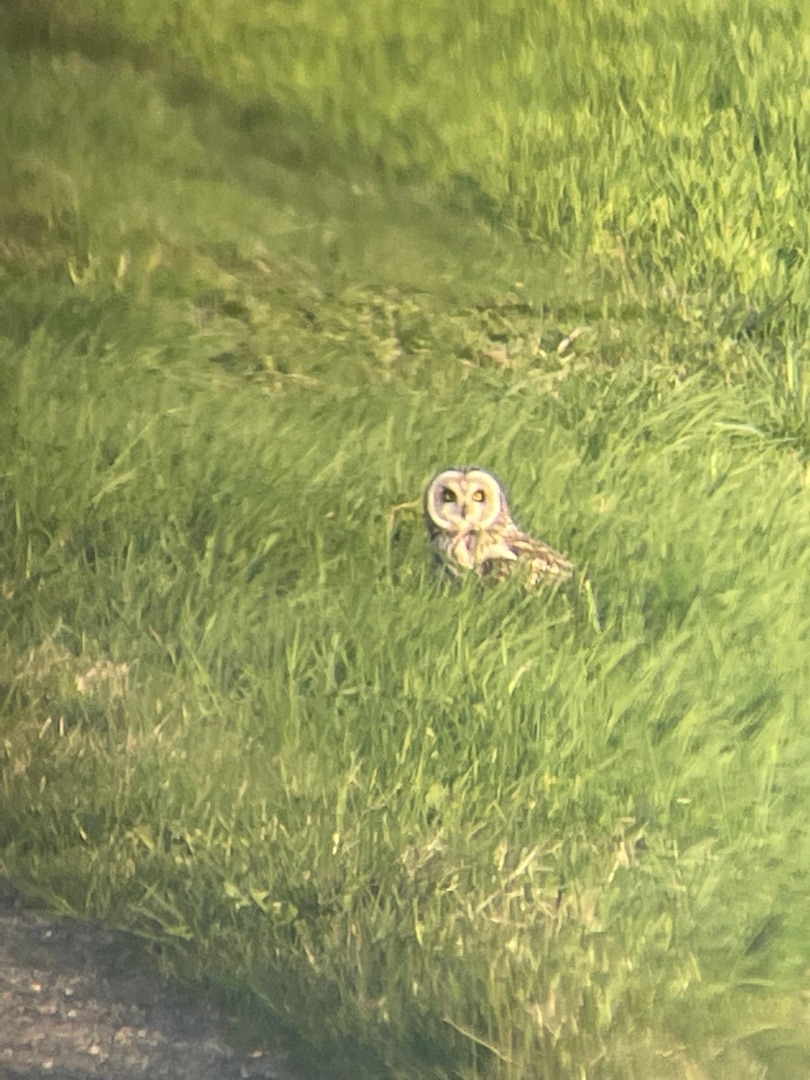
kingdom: Animalia
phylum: Chordata
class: Aves
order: Strigiformes
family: Strigidae
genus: Asio
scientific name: Asio flammeus
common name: Mosehornugle
